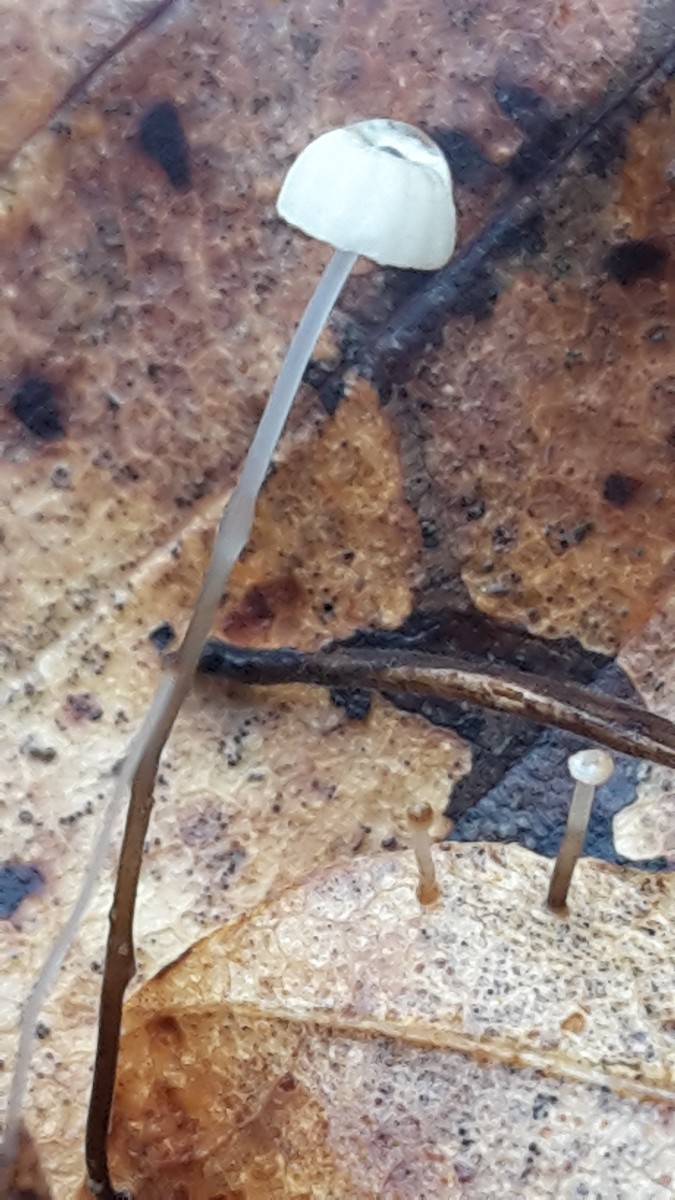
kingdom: Fungi
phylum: Basidiomycota
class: Agaricomycetes
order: Agaricales
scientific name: Agaricales
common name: champignonordenen
